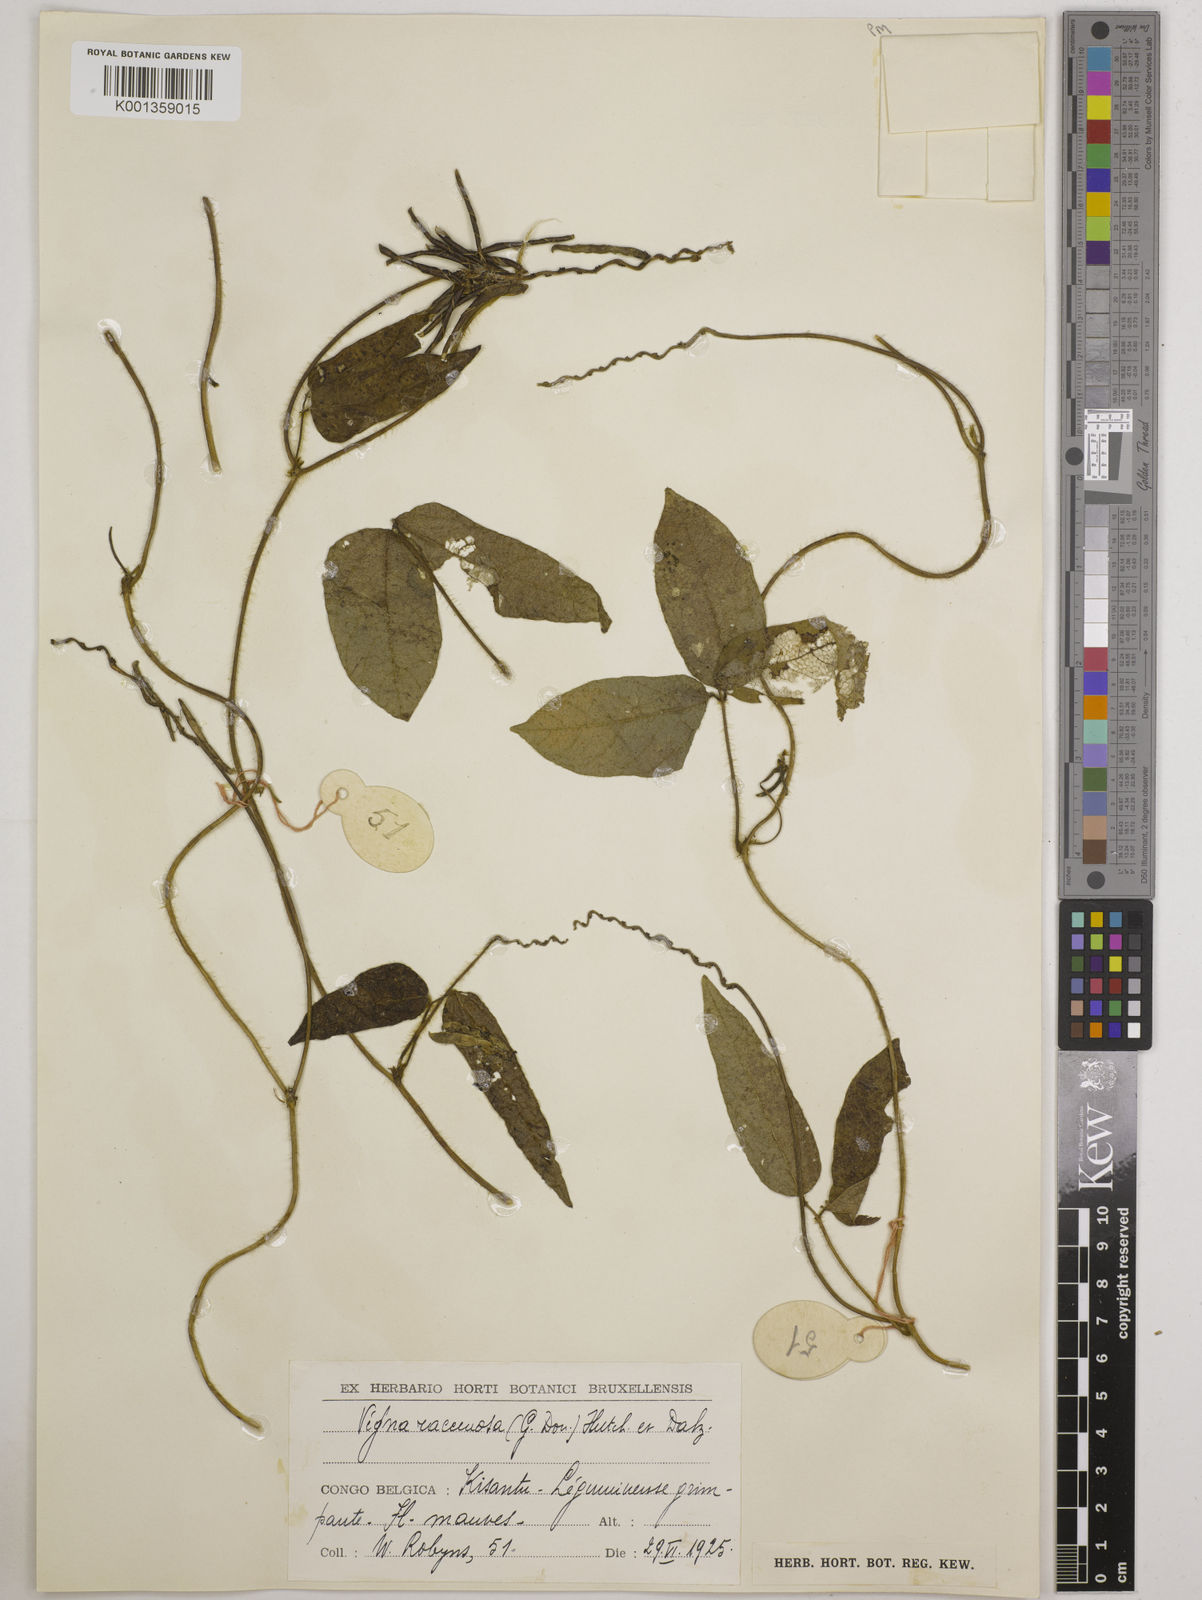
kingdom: Plantae
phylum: Tracheophyta
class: Magnoliopsida
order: Fabales
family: Fabaceae
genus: Vigna
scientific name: Vigna racemosa
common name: Beans not eaten
